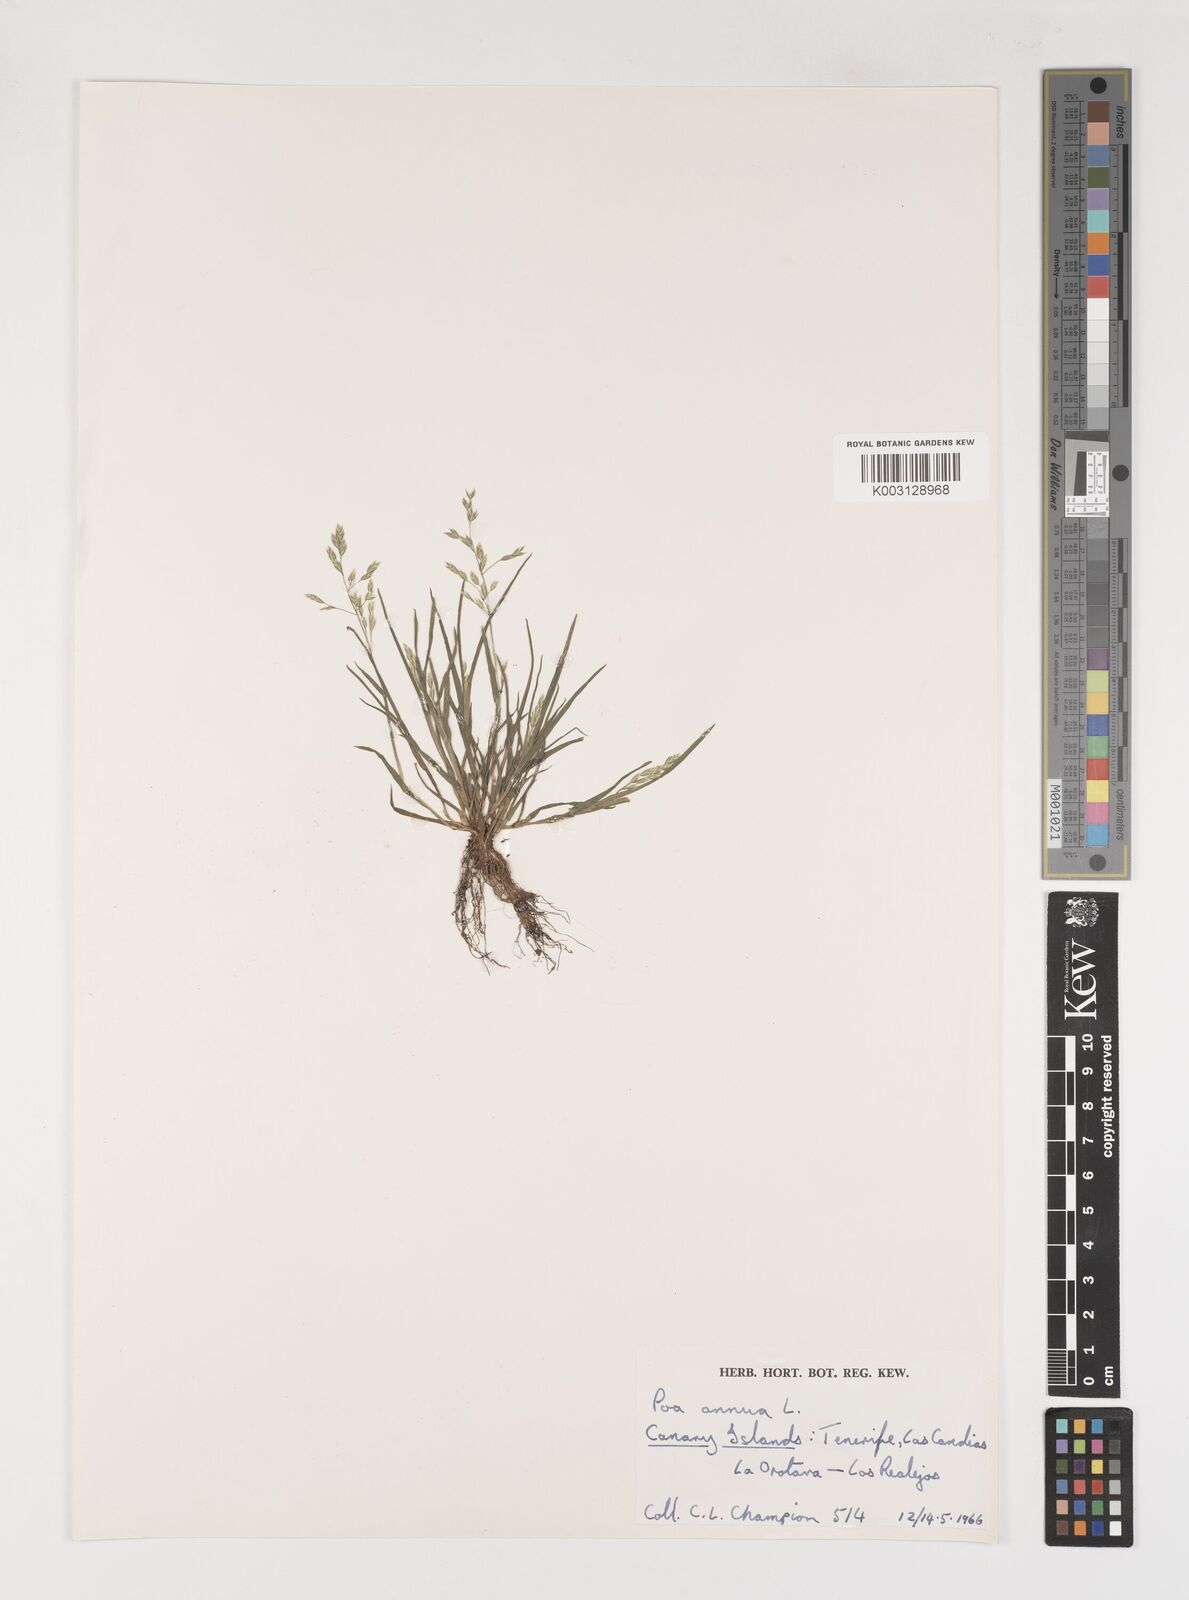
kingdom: Plantae
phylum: Tracheophyta
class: Liliopsida
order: Poales
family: Poaceae
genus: Poa
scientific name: Poa annua
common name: Annual bluegrass
